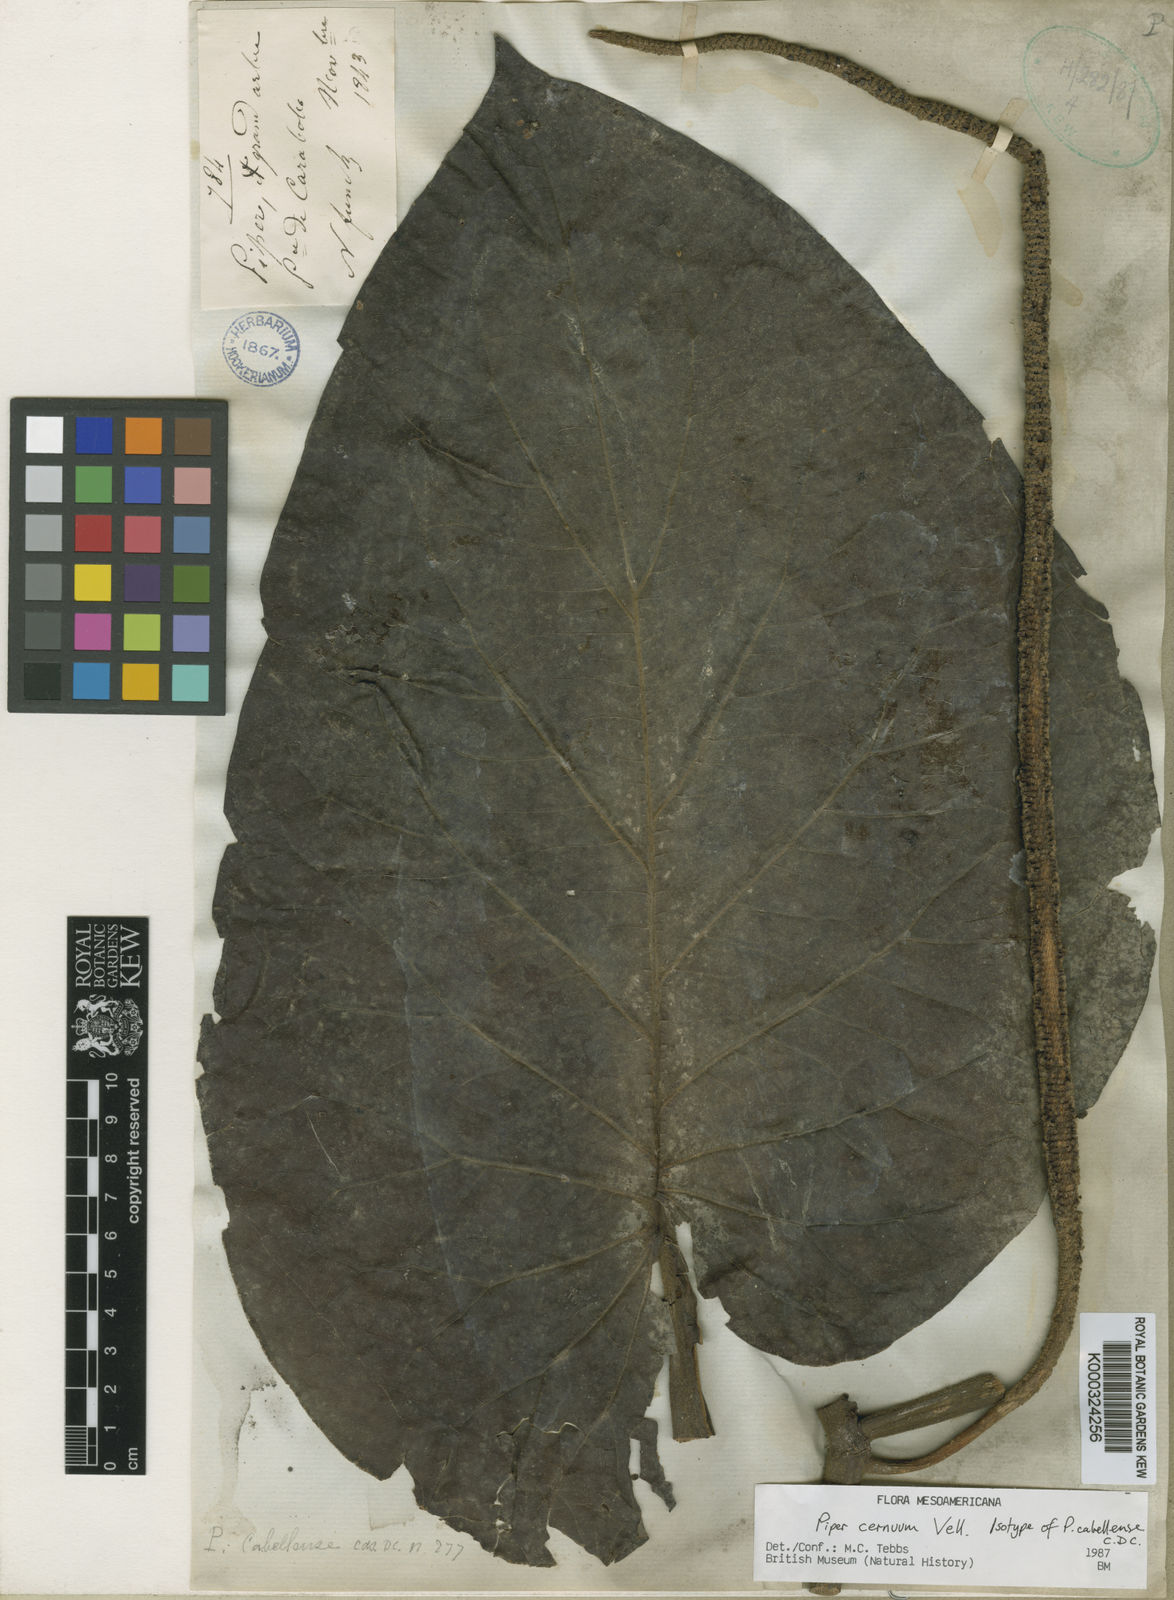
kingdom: Plantae
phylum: Tracheophyta
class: Magnoliopsida
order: Piperales
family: Piperaceae
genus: Piper
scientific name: Piper cernuum
